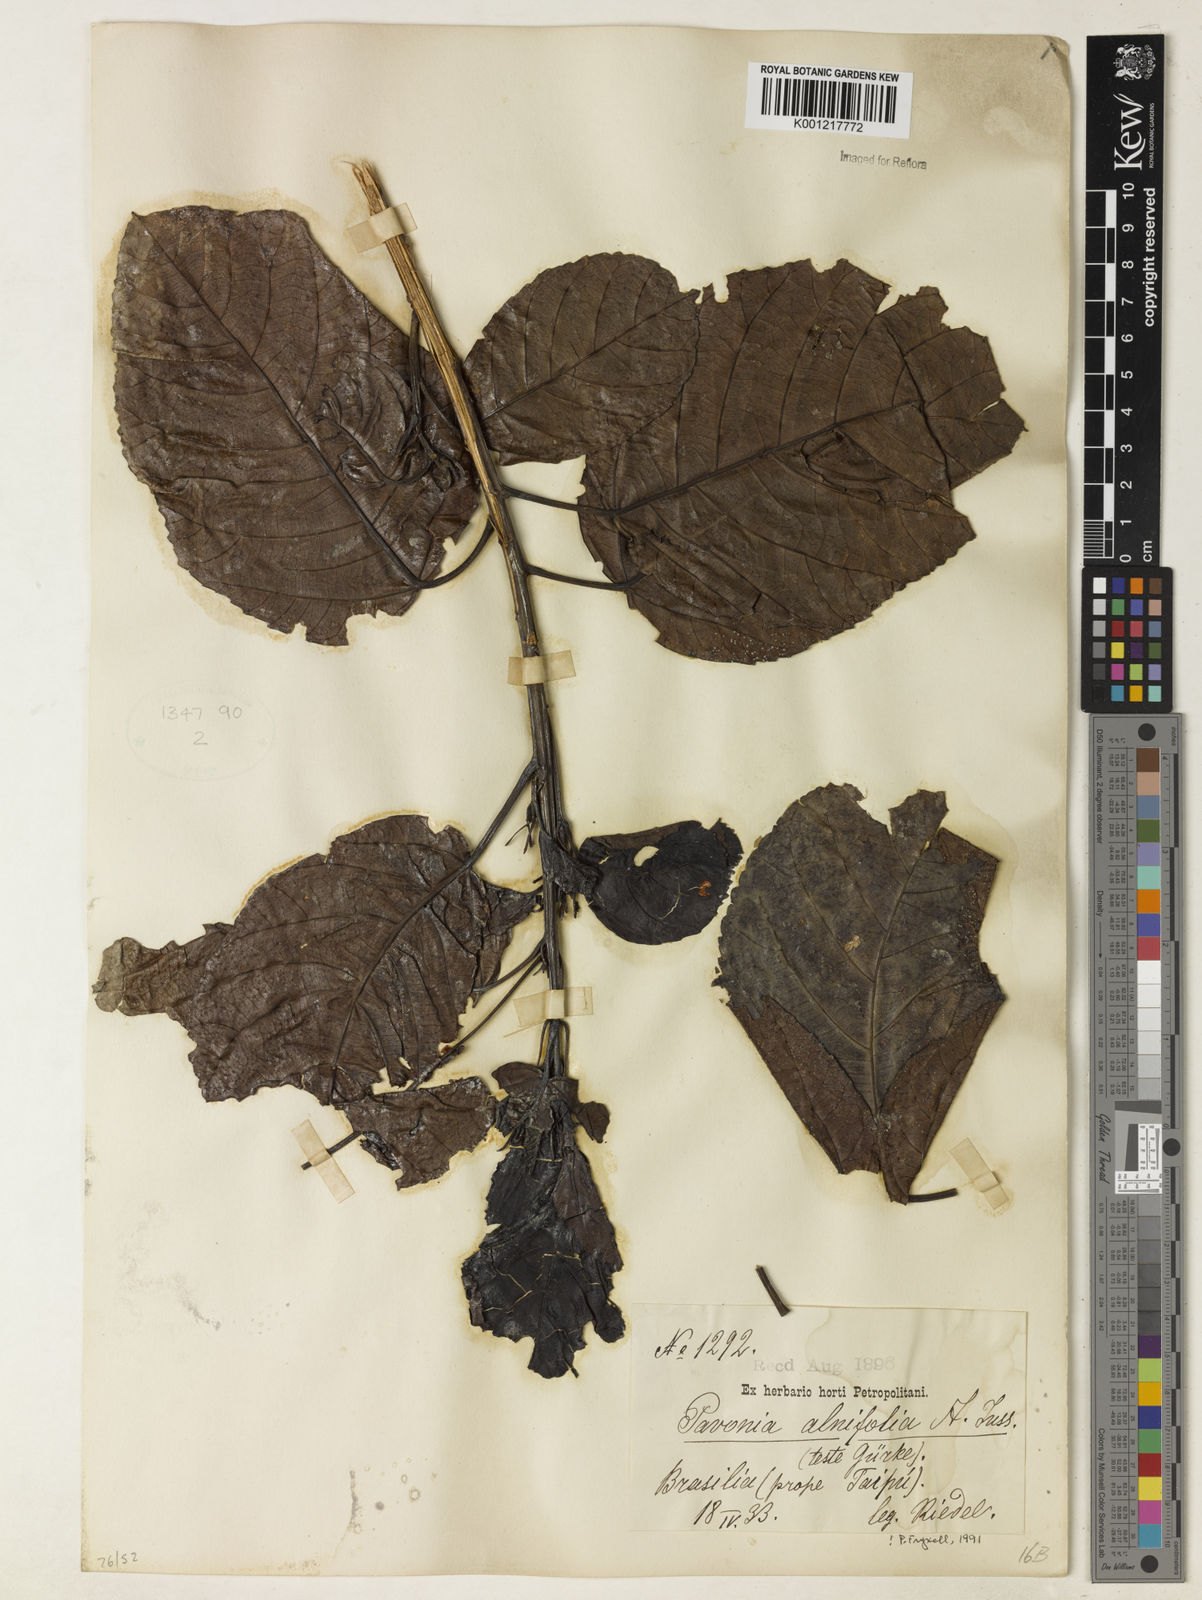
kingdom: Plantae
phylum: Tracheophyta
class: Magnoliopsida
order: Malvales
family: Malvaceae
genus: Pavonia
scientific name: Pavonia alnifolia
